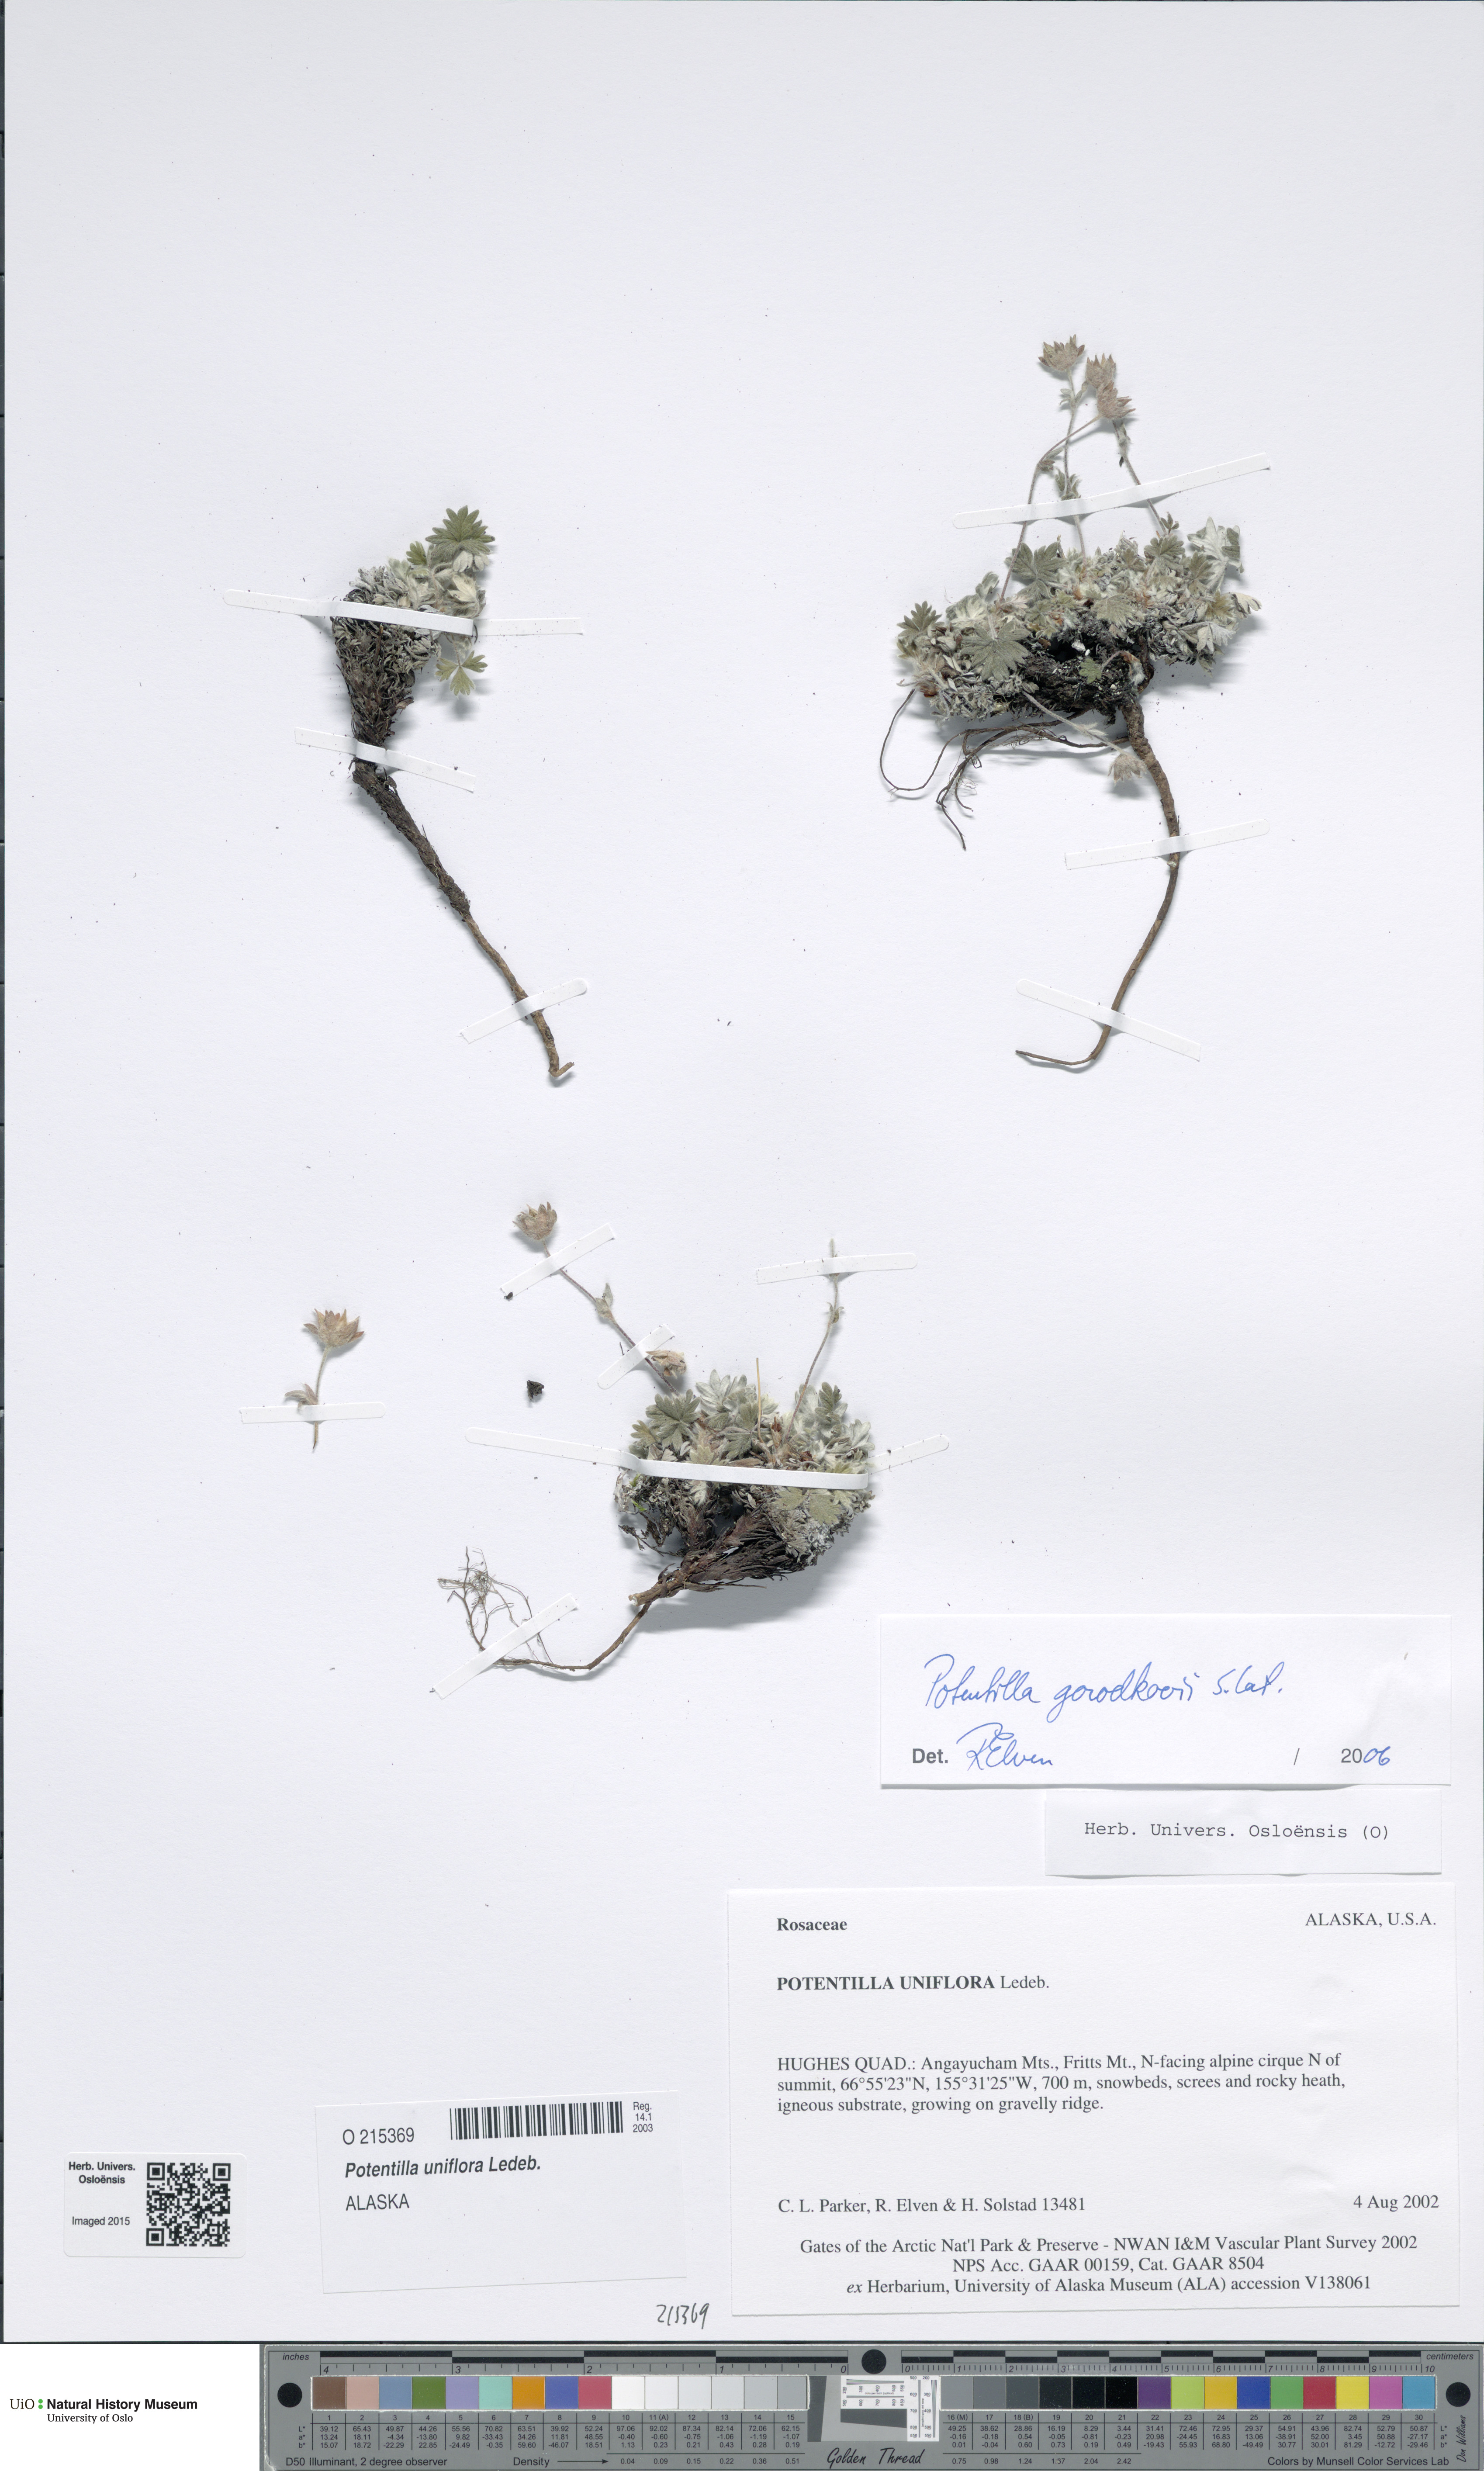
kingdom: Plantae
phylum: Tracheophyta
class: Magnoliopsida
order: Rosales
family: Rosaceae
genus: Potentilla
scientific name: Potentilla uniflora
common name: One-flowered cinquefoil
